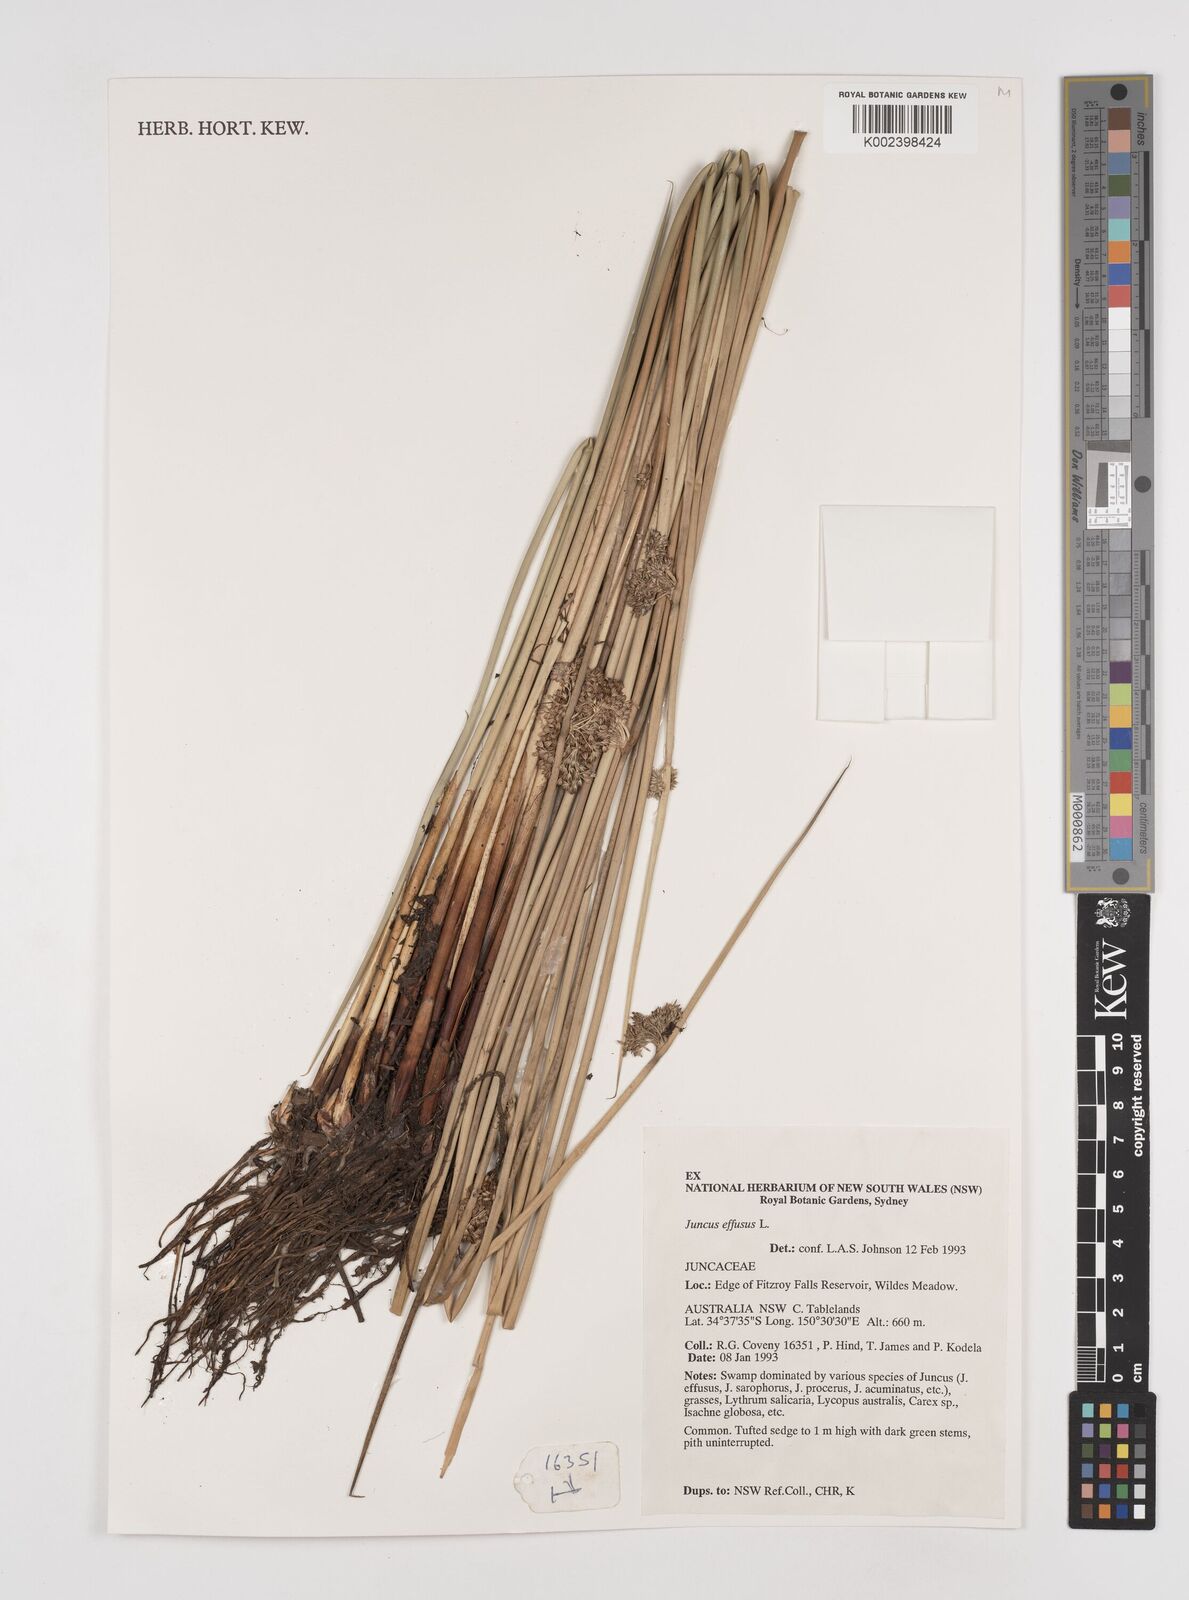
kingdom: Plantae
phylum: Tracheophyta
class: Liliopsida
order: Poales
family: Juncaceae
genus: Juncus
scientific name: Juncus effusus
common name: Soft rush
